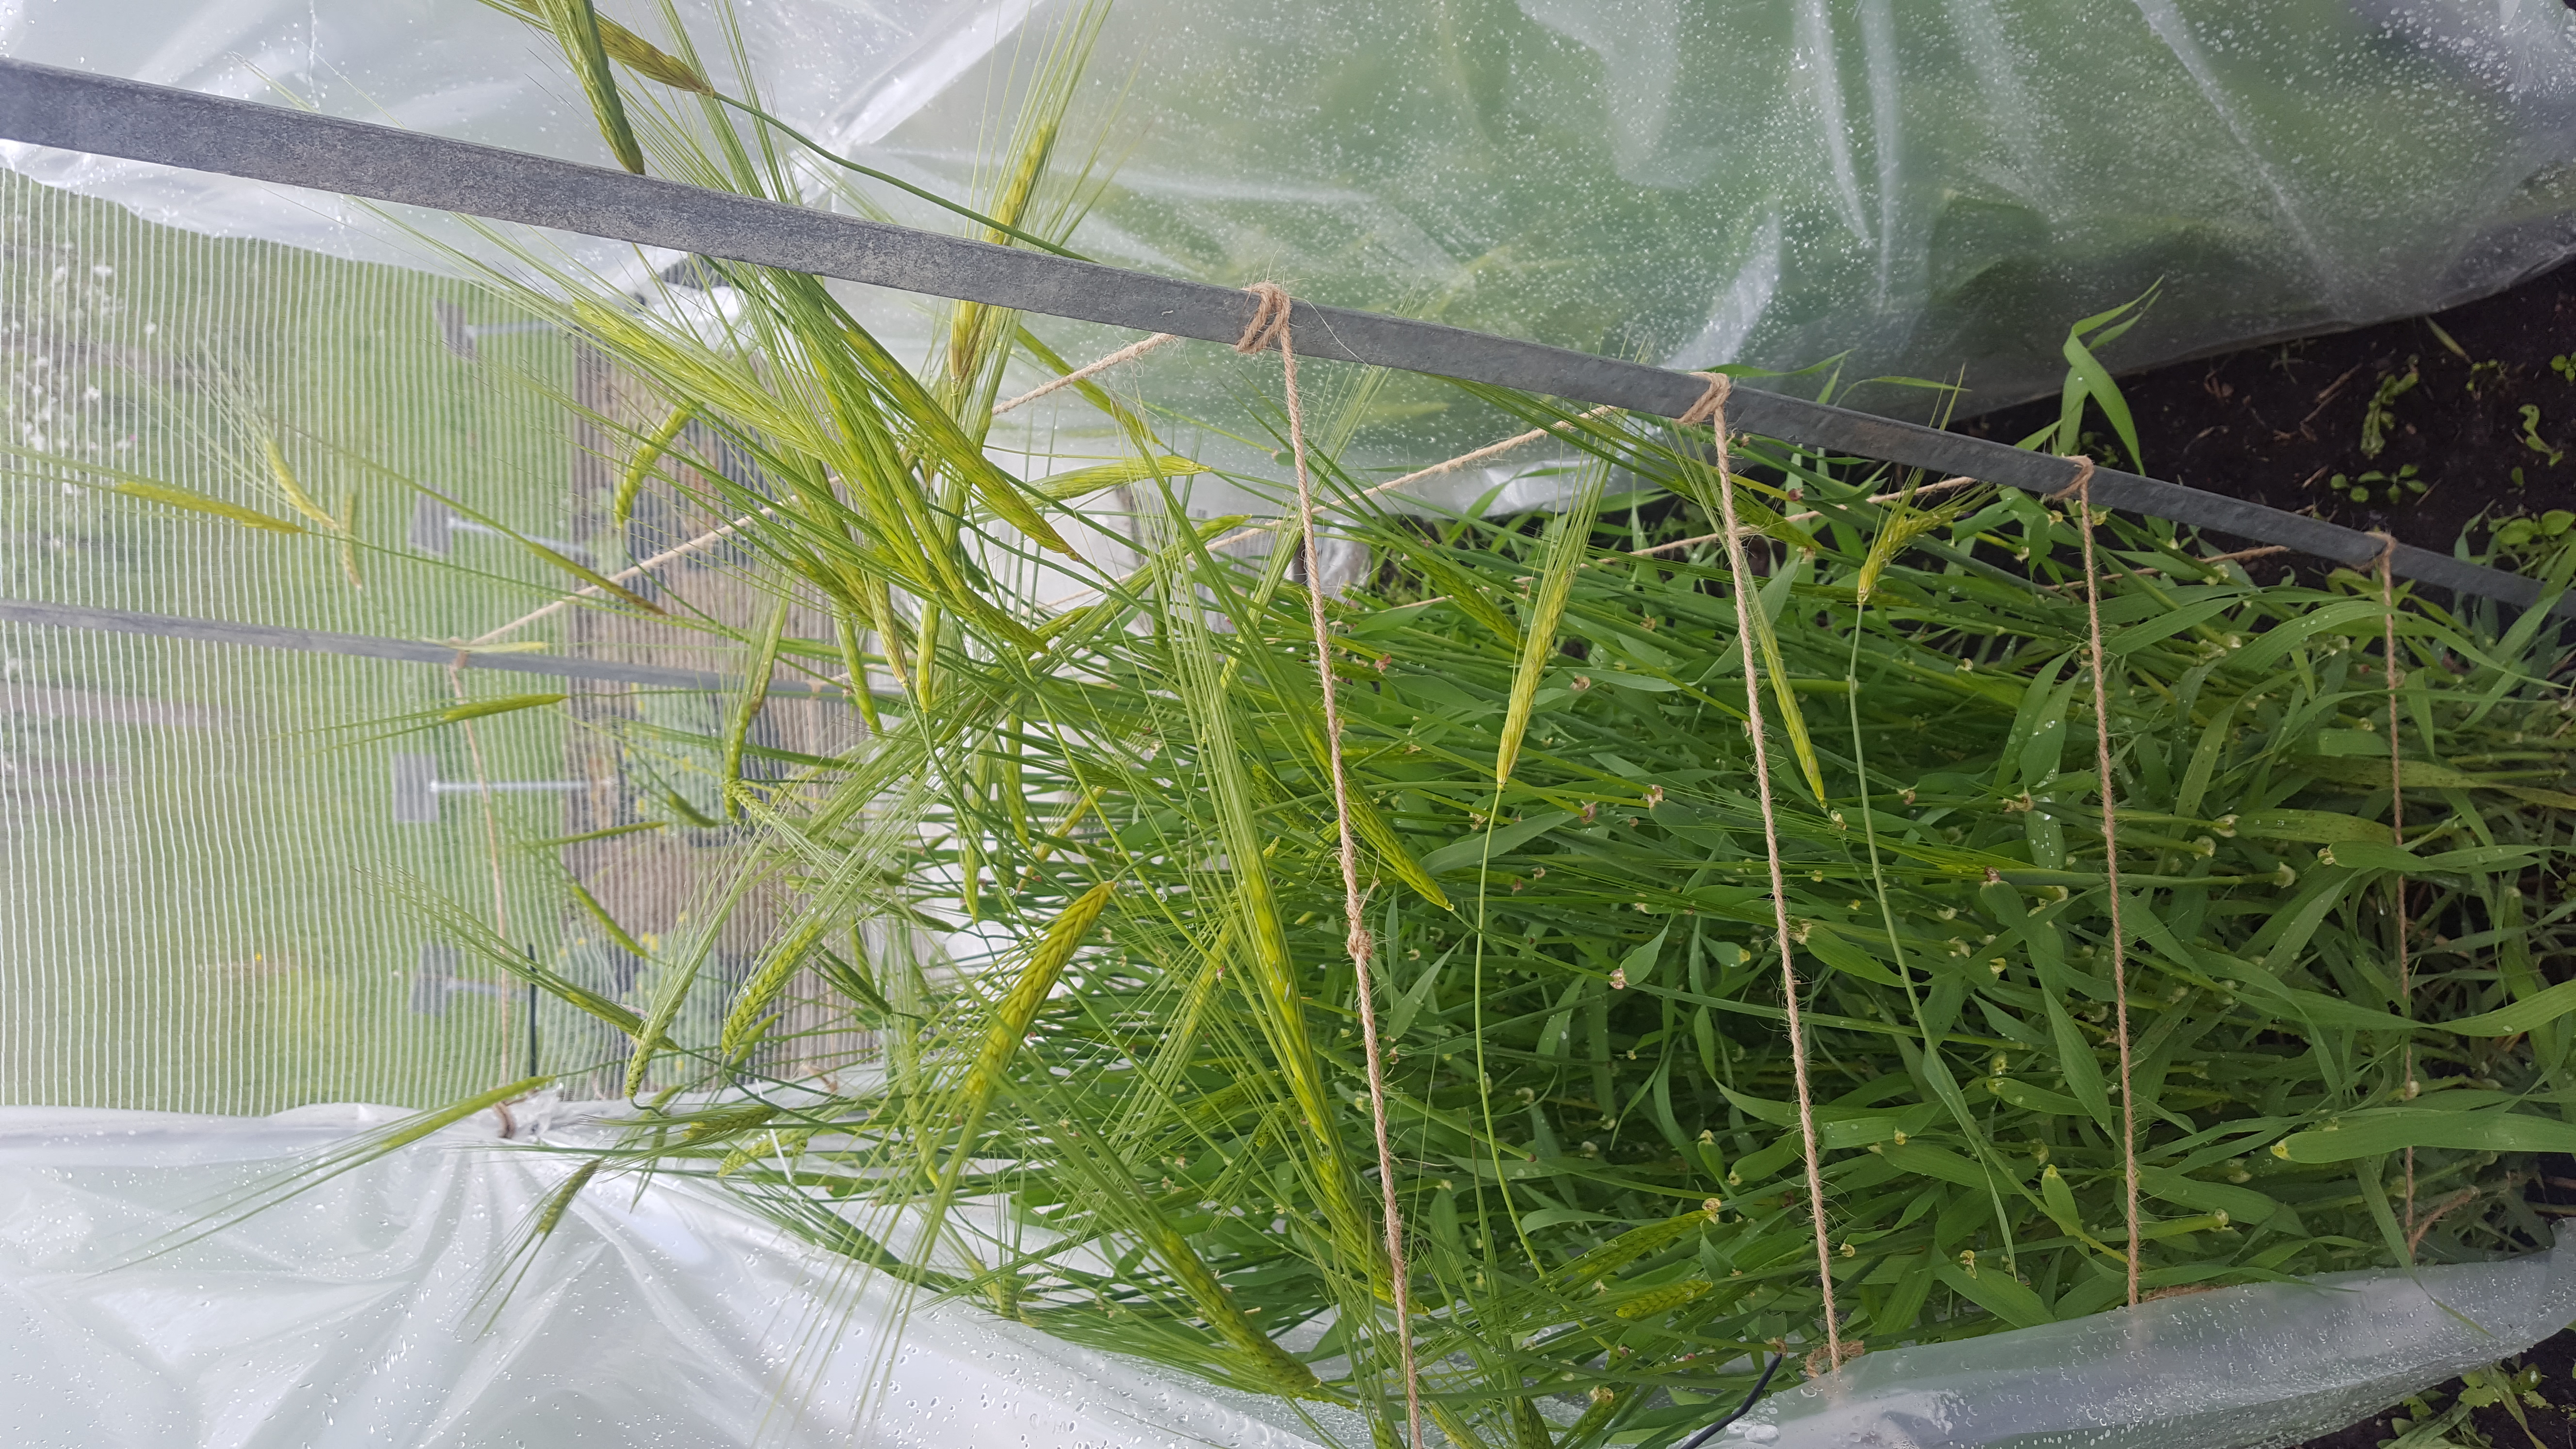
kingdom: Plantae
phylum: Tracheophyta
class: Liliopsida
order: Poales
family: Poaceae
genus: Hordeum
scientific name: Hordeum spontaneum
